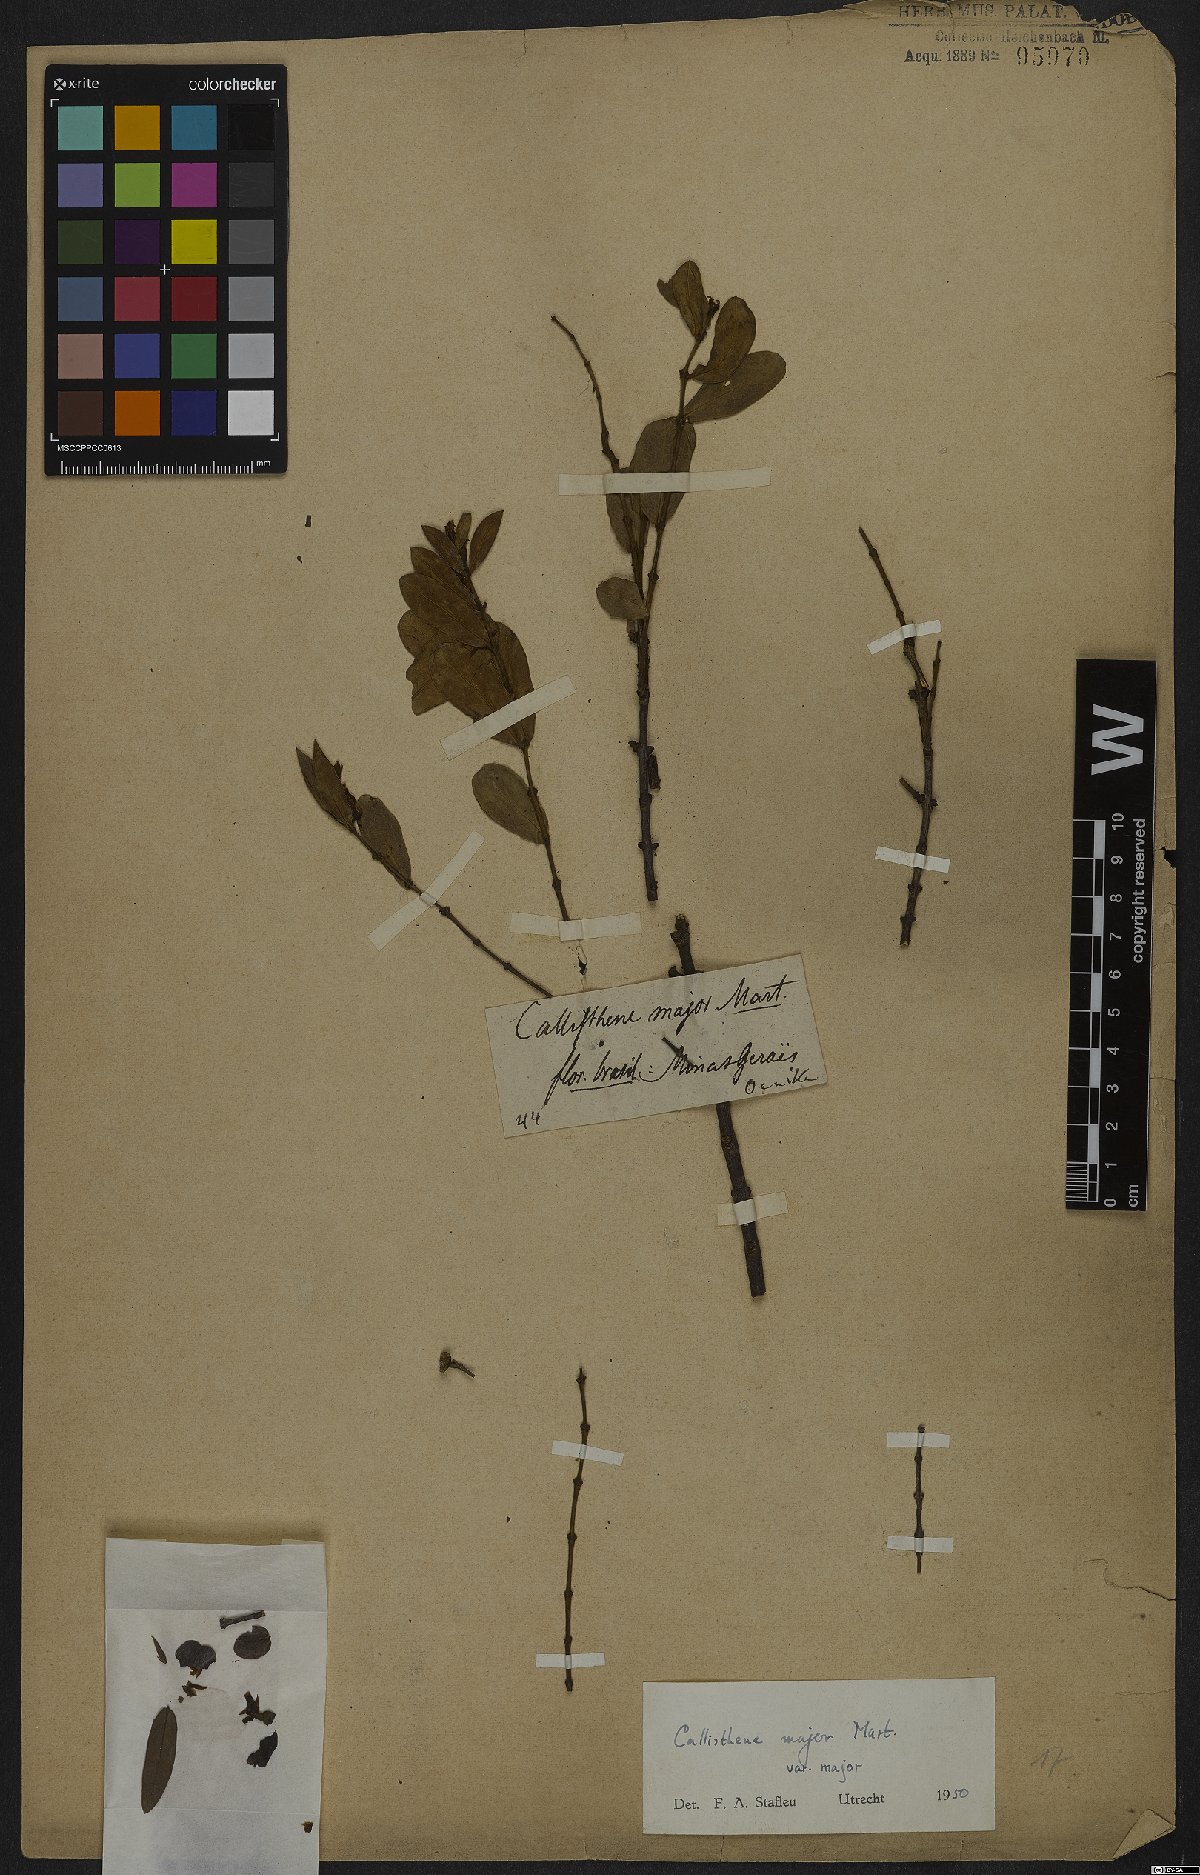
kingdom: Plantae
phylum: Tracheophyta
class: Magnoliopsida
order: Myrtales
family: Vochysiaceae
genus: Callisthene
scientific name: Callisthene major
